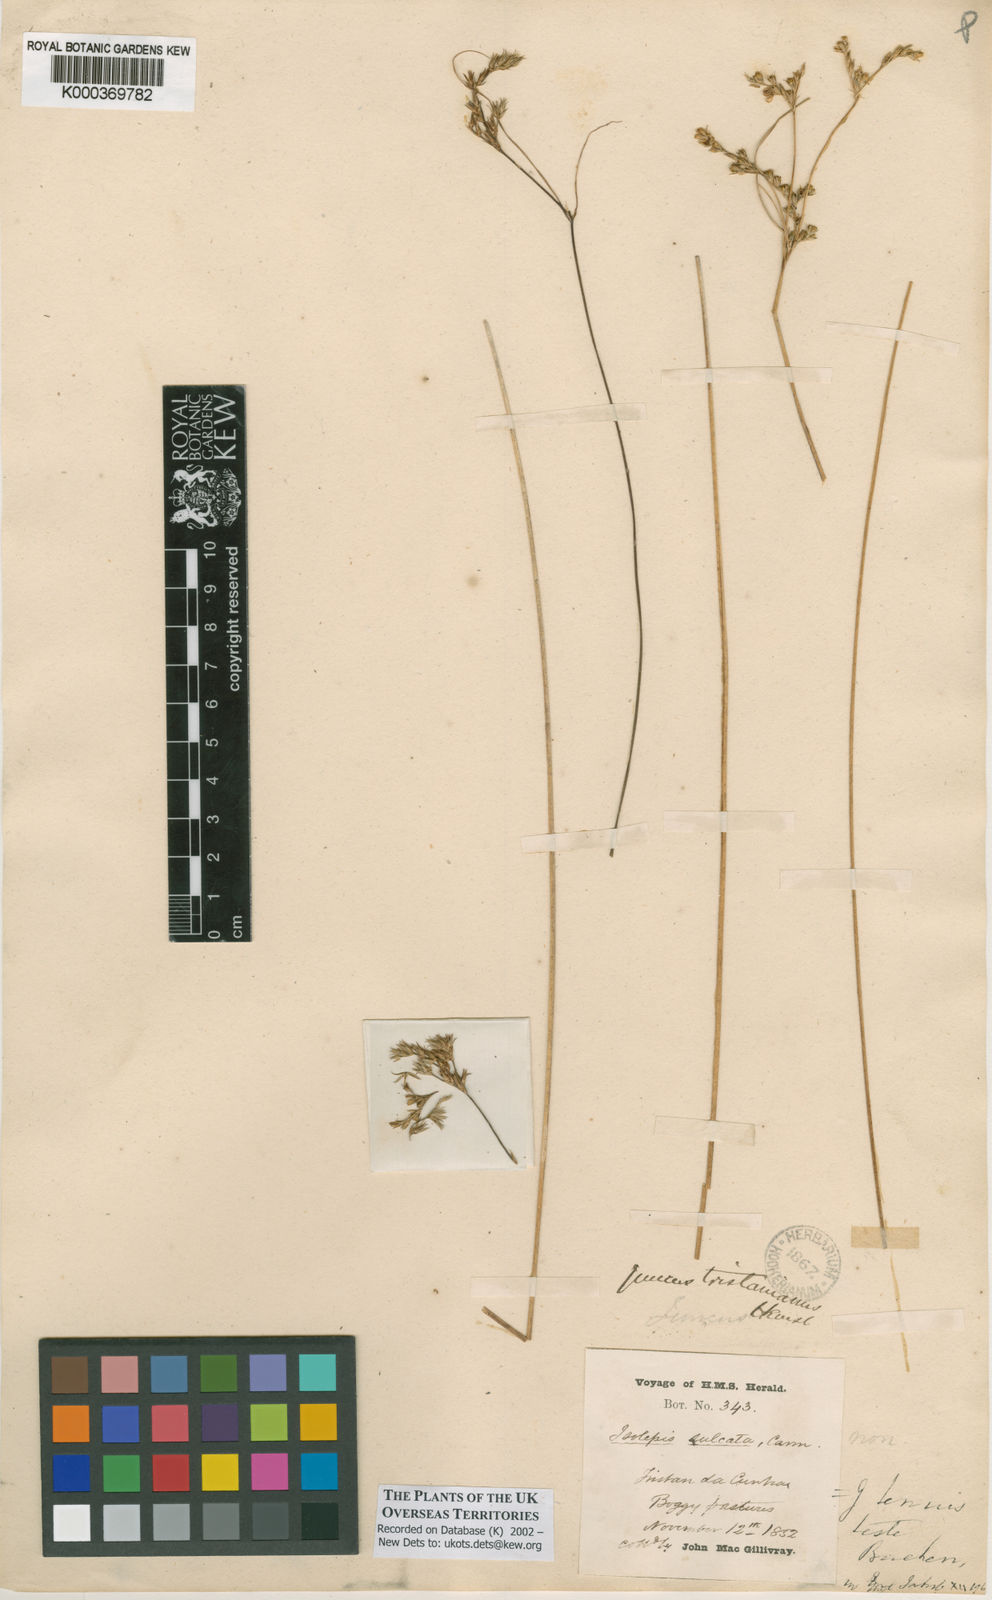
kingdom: Plantae
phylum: Tracheophyta
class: Liliopsida
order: Poales
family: Juncaceae
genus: Juncus
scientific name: Juncus tenuis
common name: Slender rush
